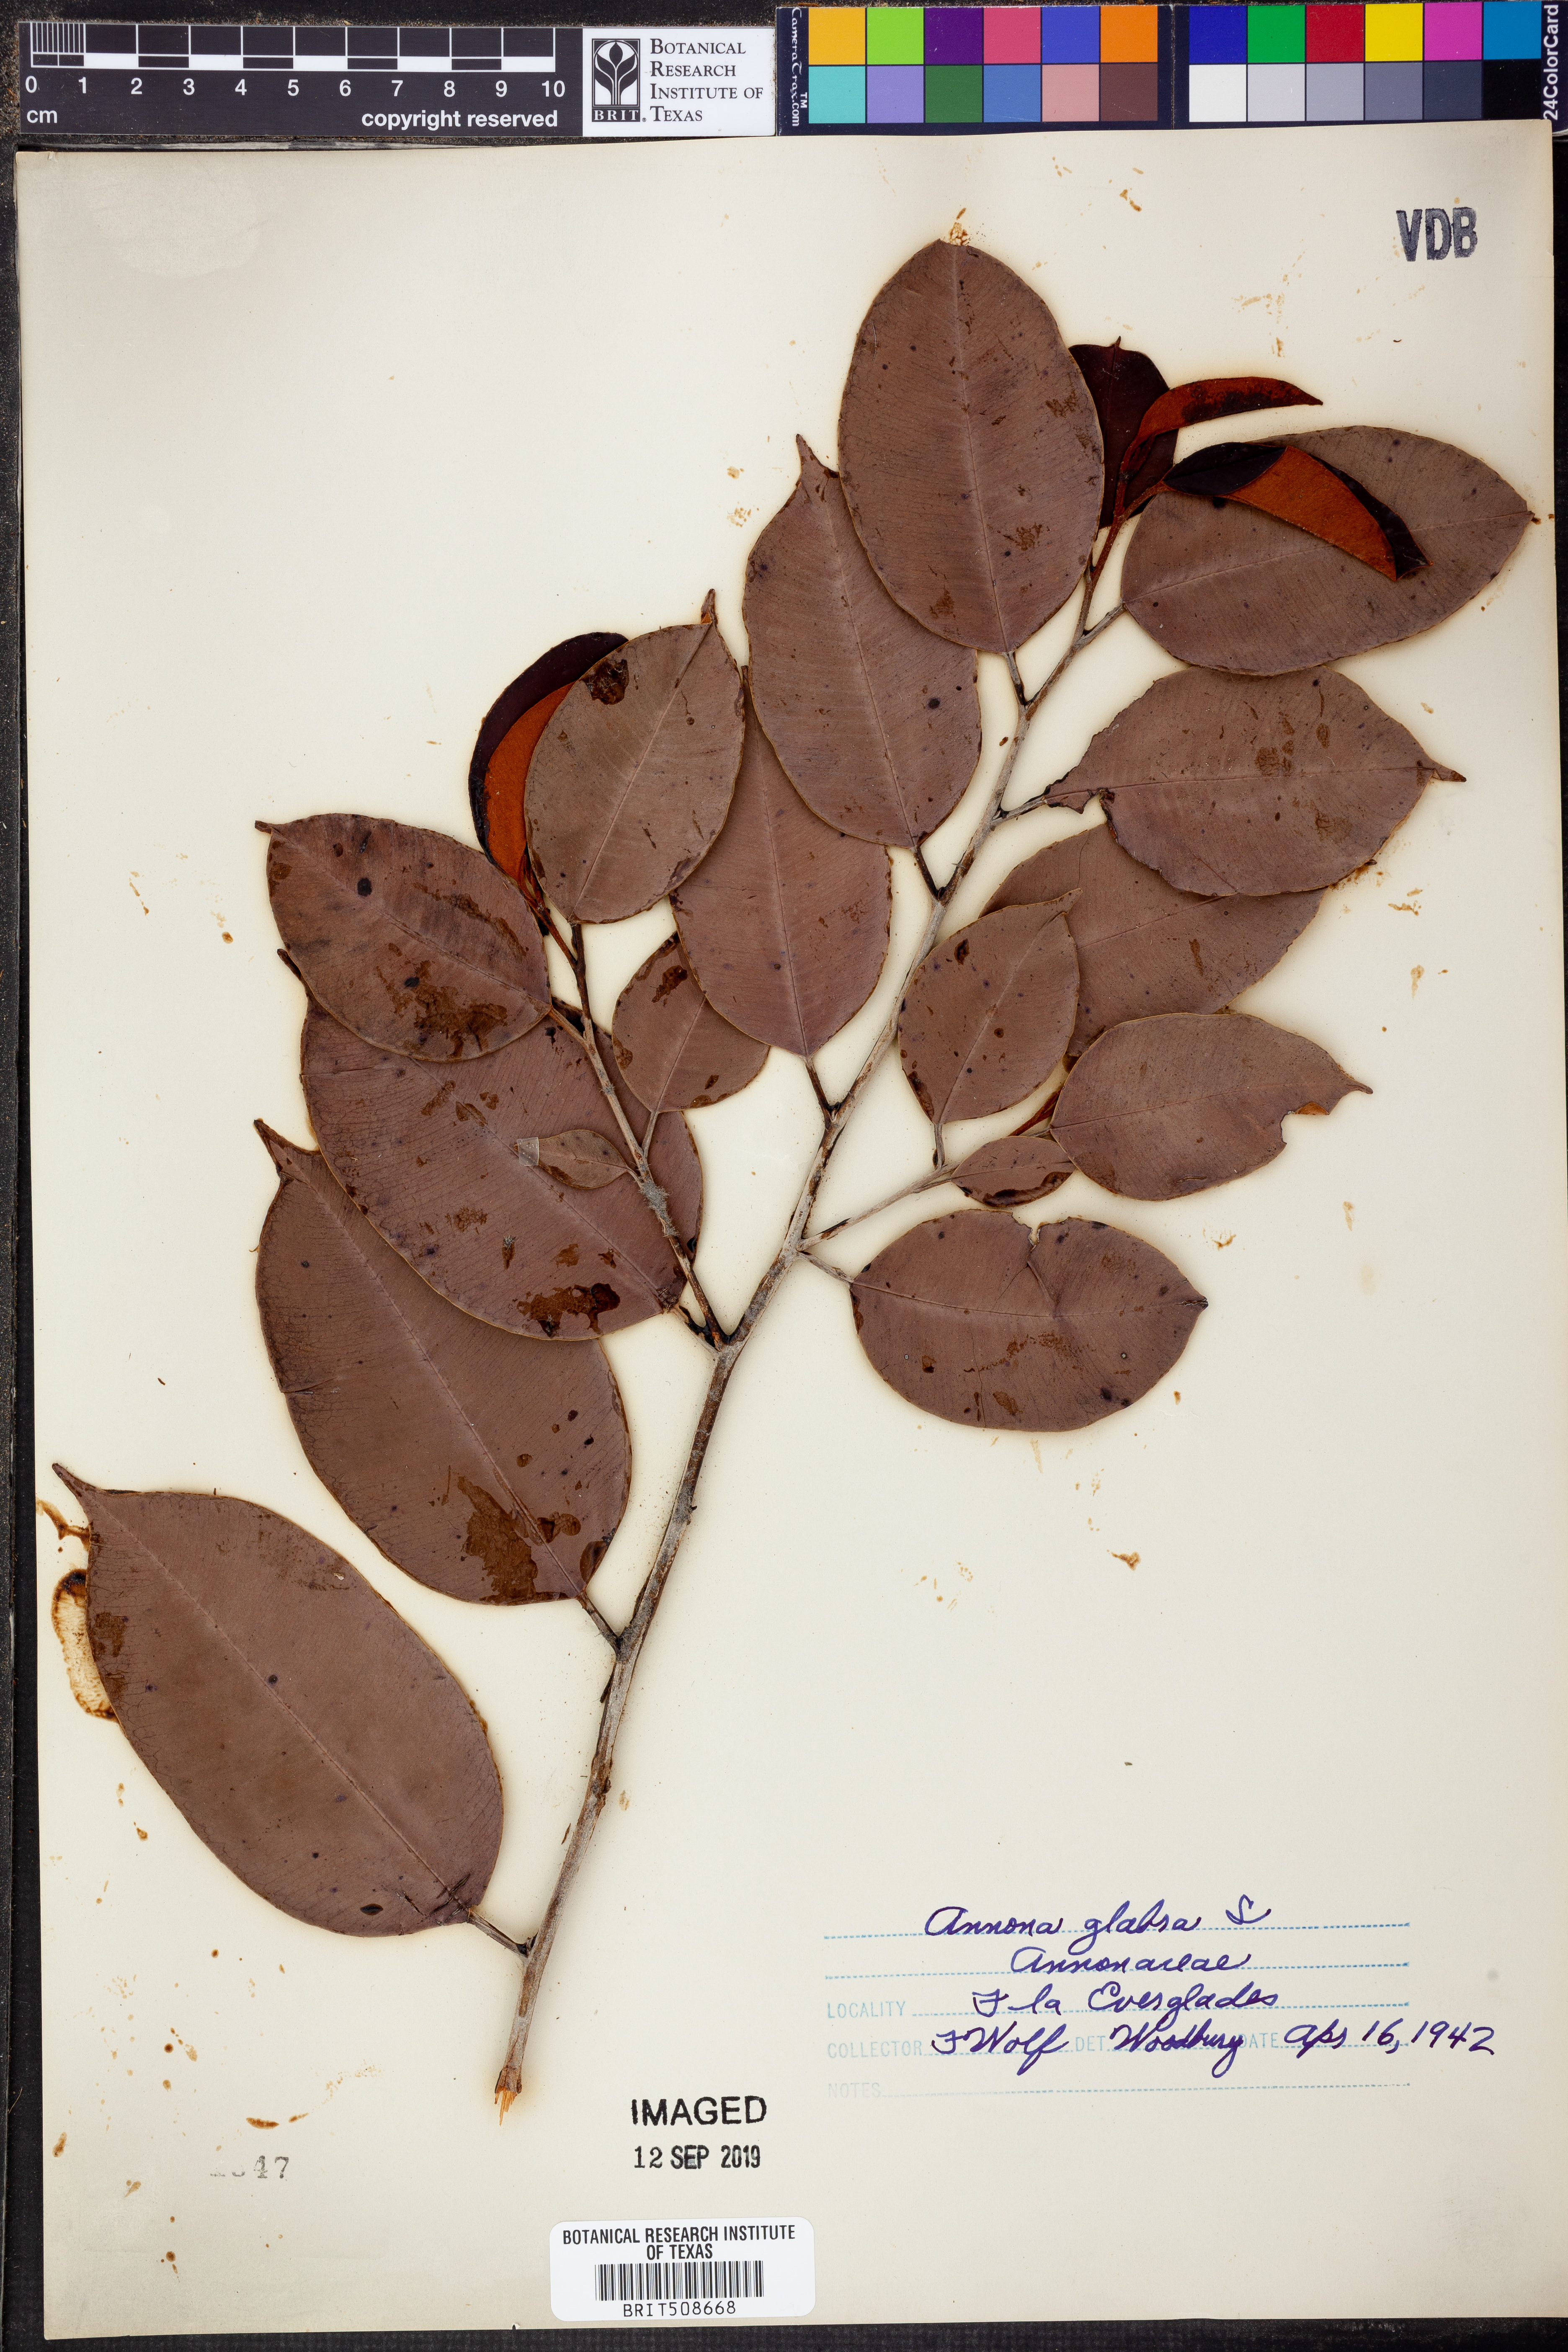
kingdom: Plantae
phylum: Tracheophyta
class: Magnoliopsida
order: Magnoliales
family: Annonaceae
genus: Annona
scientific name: Annona glabra
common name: Monkey apple
